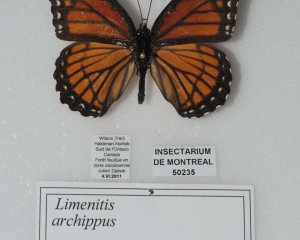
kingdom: Animalia
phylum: Arthropoda
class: Insecta
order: Lepidoptera
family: Nymphalidae
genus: Limenitis
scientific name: Limenitis archippus
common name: Viceroy
